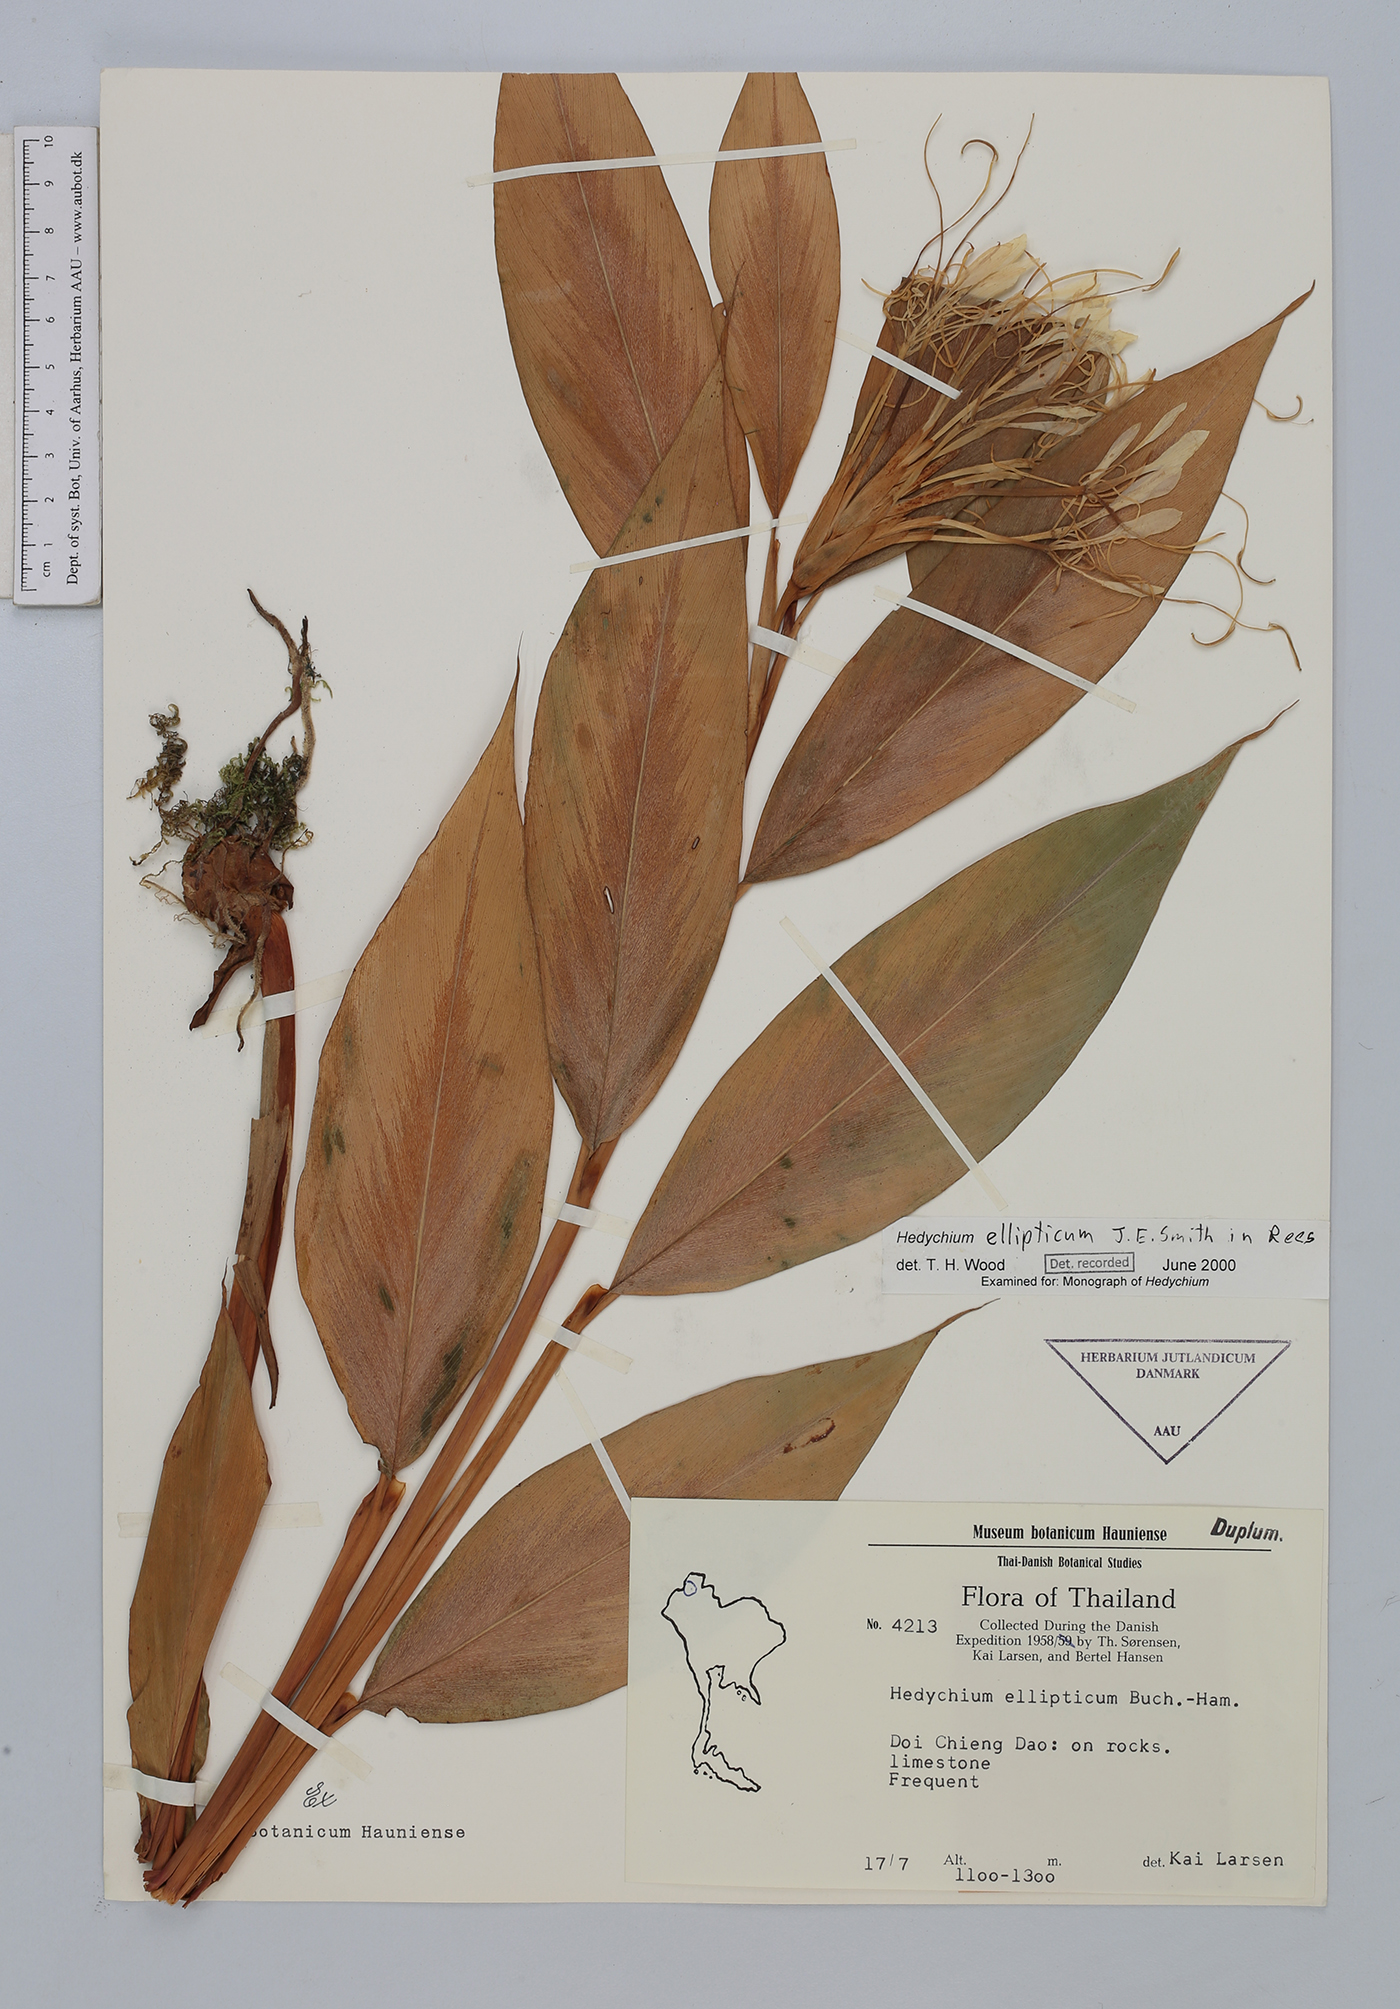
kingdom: Plantae
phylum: Tracheophyta
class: Liliopsida
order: Zingiberales
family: Zingiberaceae
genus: Hedychium
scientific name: Hedychium ellipticum
